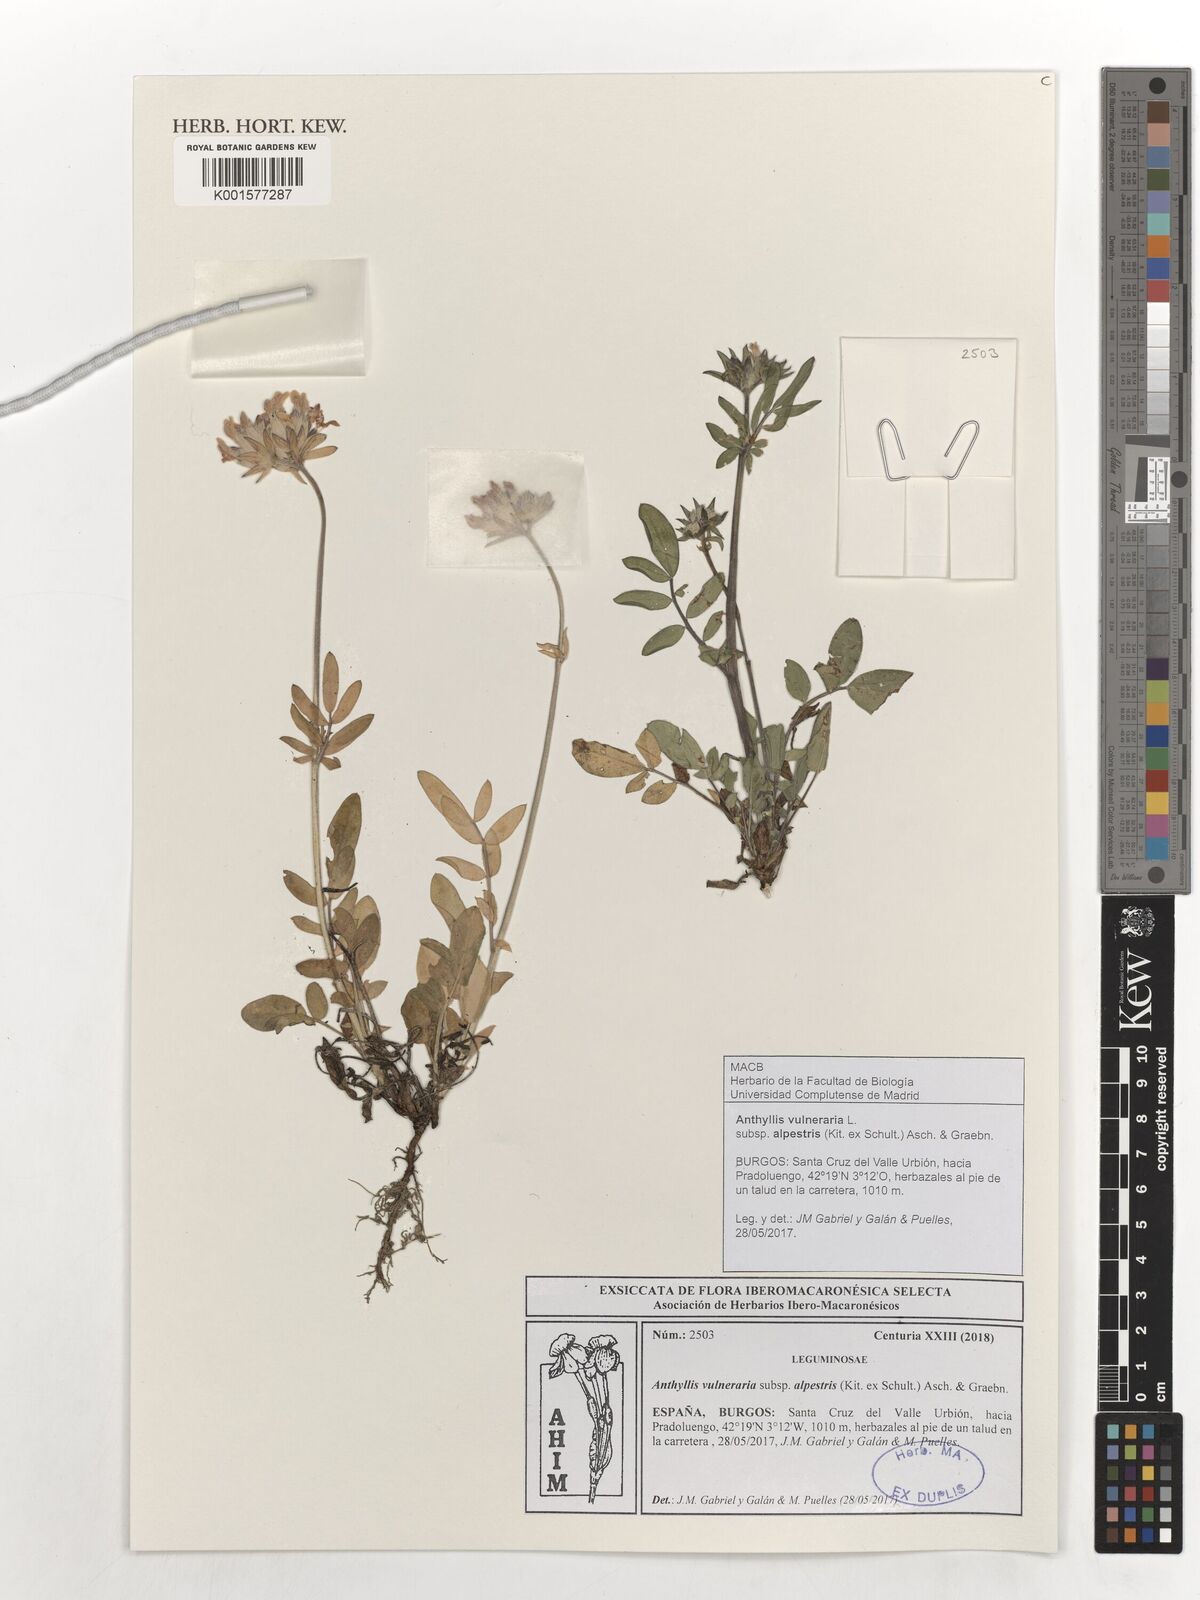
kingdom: Plantae
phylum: Tracheophyta
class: Magnoliopsida
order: Fabales
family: Fabaceae
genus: Anthyllis
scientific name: Anthyllis vulneraria
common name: Kidney vetch
